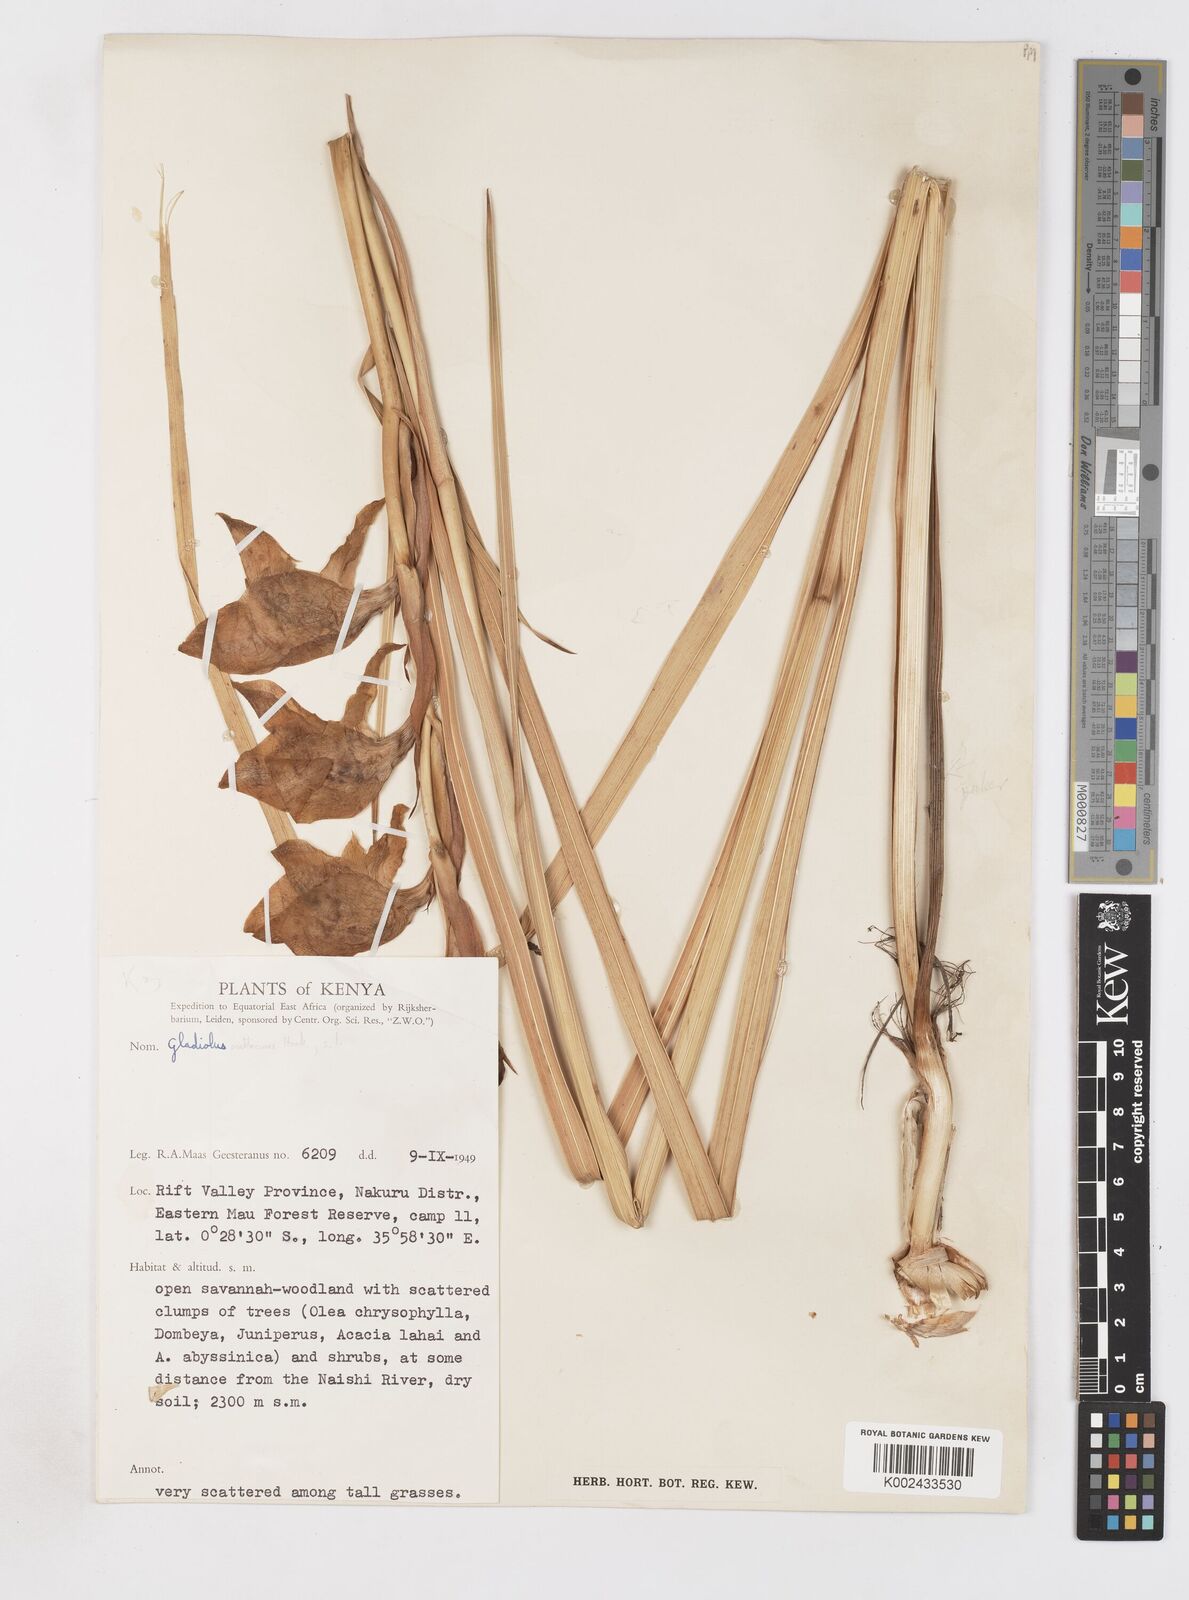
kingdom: Plantae
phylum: Tracheophyta
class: Liliopsida
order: Asparagales
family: Iridaceae
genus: Gladiolus
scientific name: Gladiolus dalenii
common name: Cornflag
